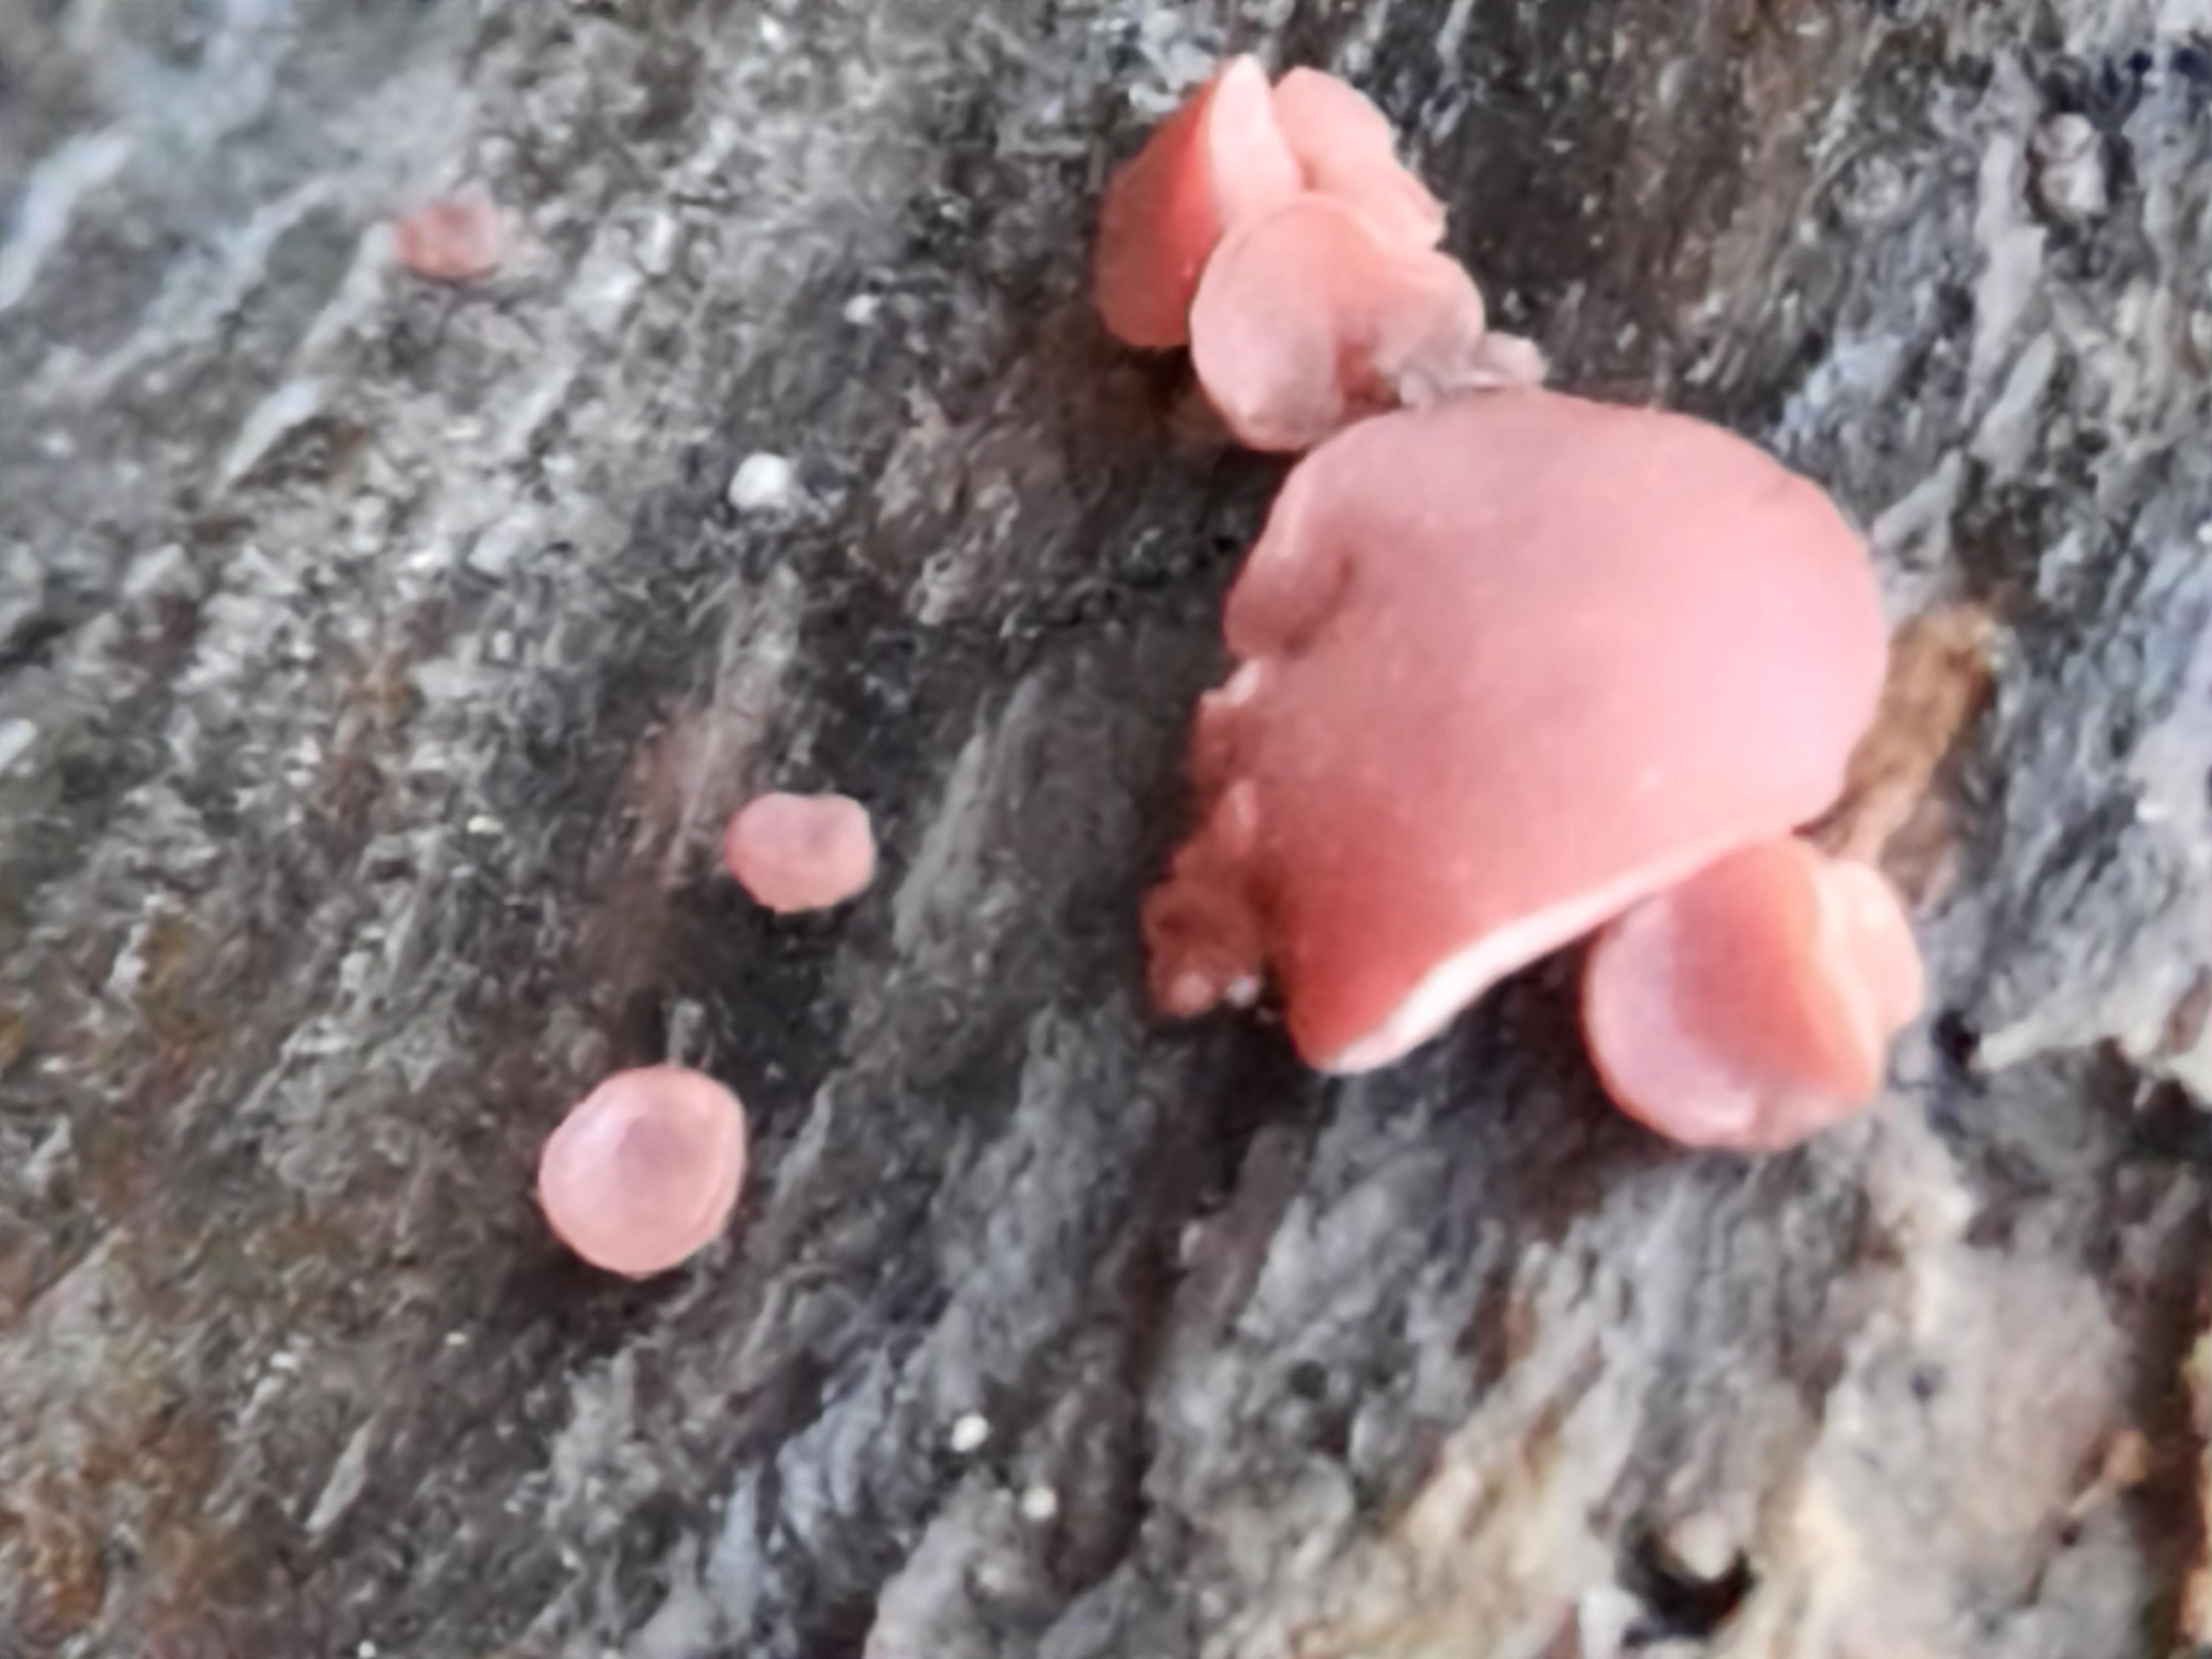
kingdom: Fungi
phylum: Ascomycota
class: Leotiomycetes
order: Helotiales
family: Gelatinodiscaceae
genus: Ascocoryne
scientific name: Ascocoryne sarcoides
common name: rødlilla sejskive
